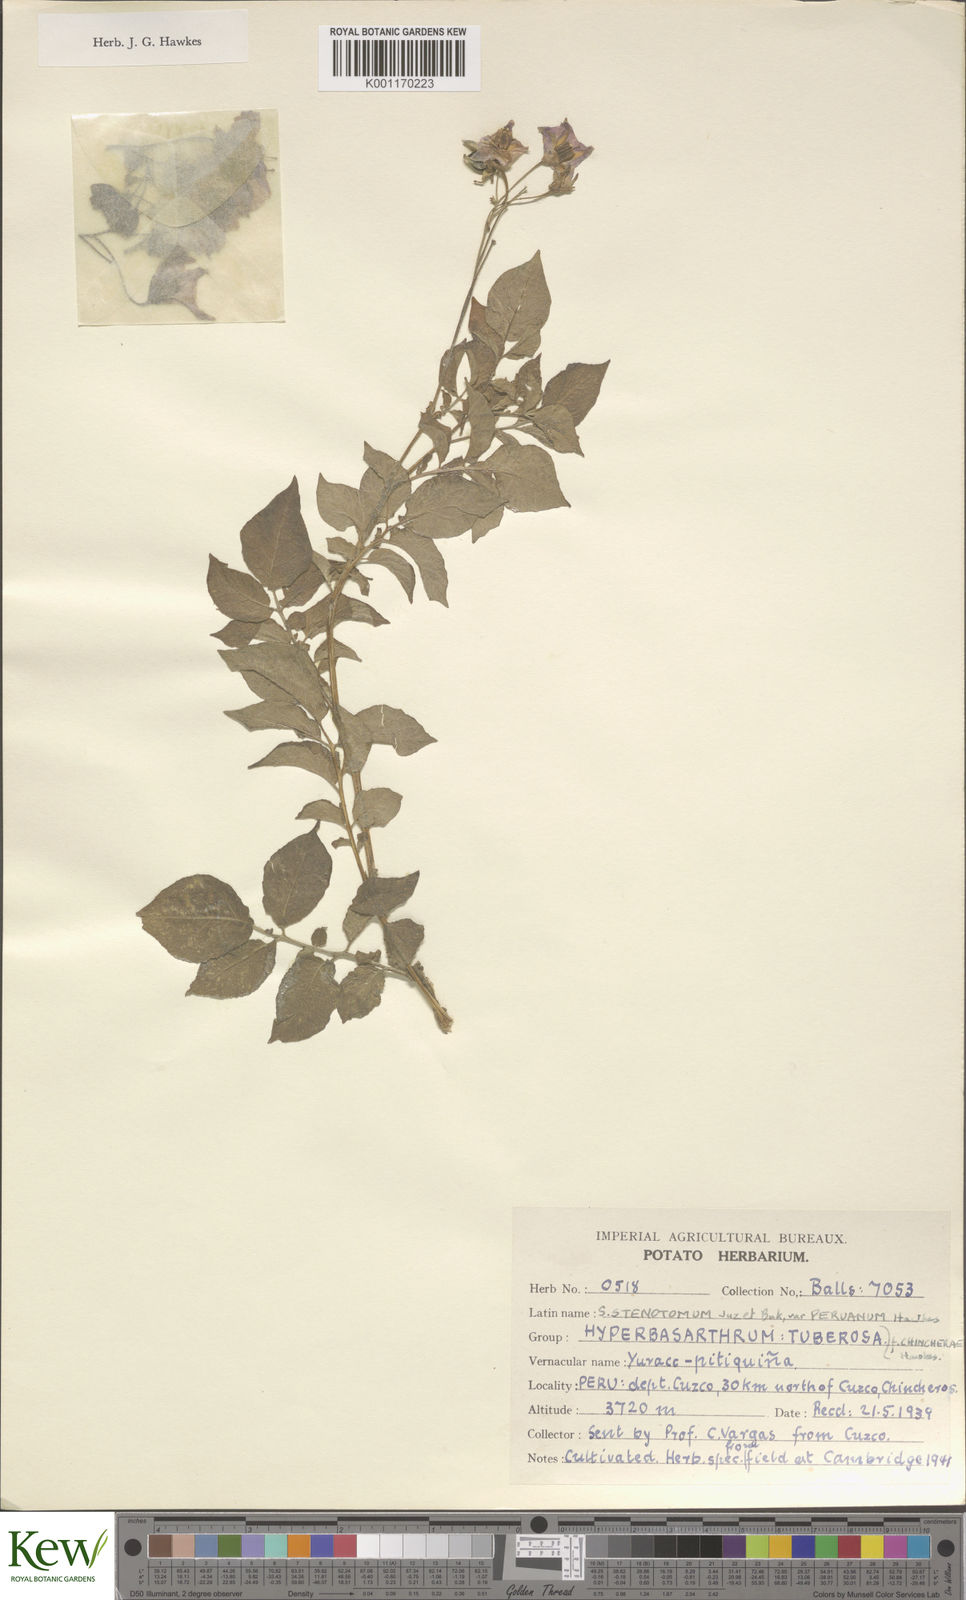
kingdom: Plantae
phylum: Tracheophyta
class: Magnoliopsida
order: Solanales
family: Solanaceae
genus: Solanum
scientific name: Solanum tuberosum
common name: Potato
